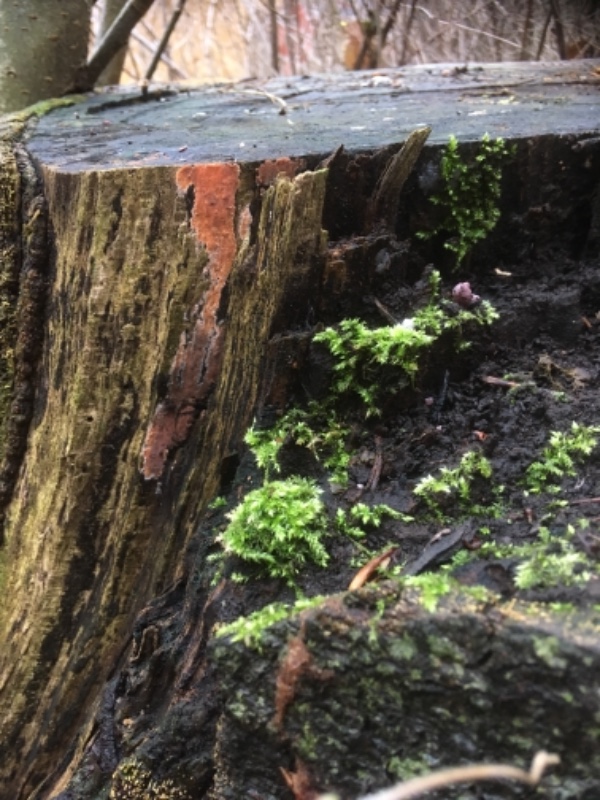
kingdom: Fungi
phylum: Basidiomycota
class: Agaricomycetes
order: Russulales
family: Peniophoraceae
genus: Peniophora
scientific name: Peniophora incarnata
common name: laksefarvet voksskind
